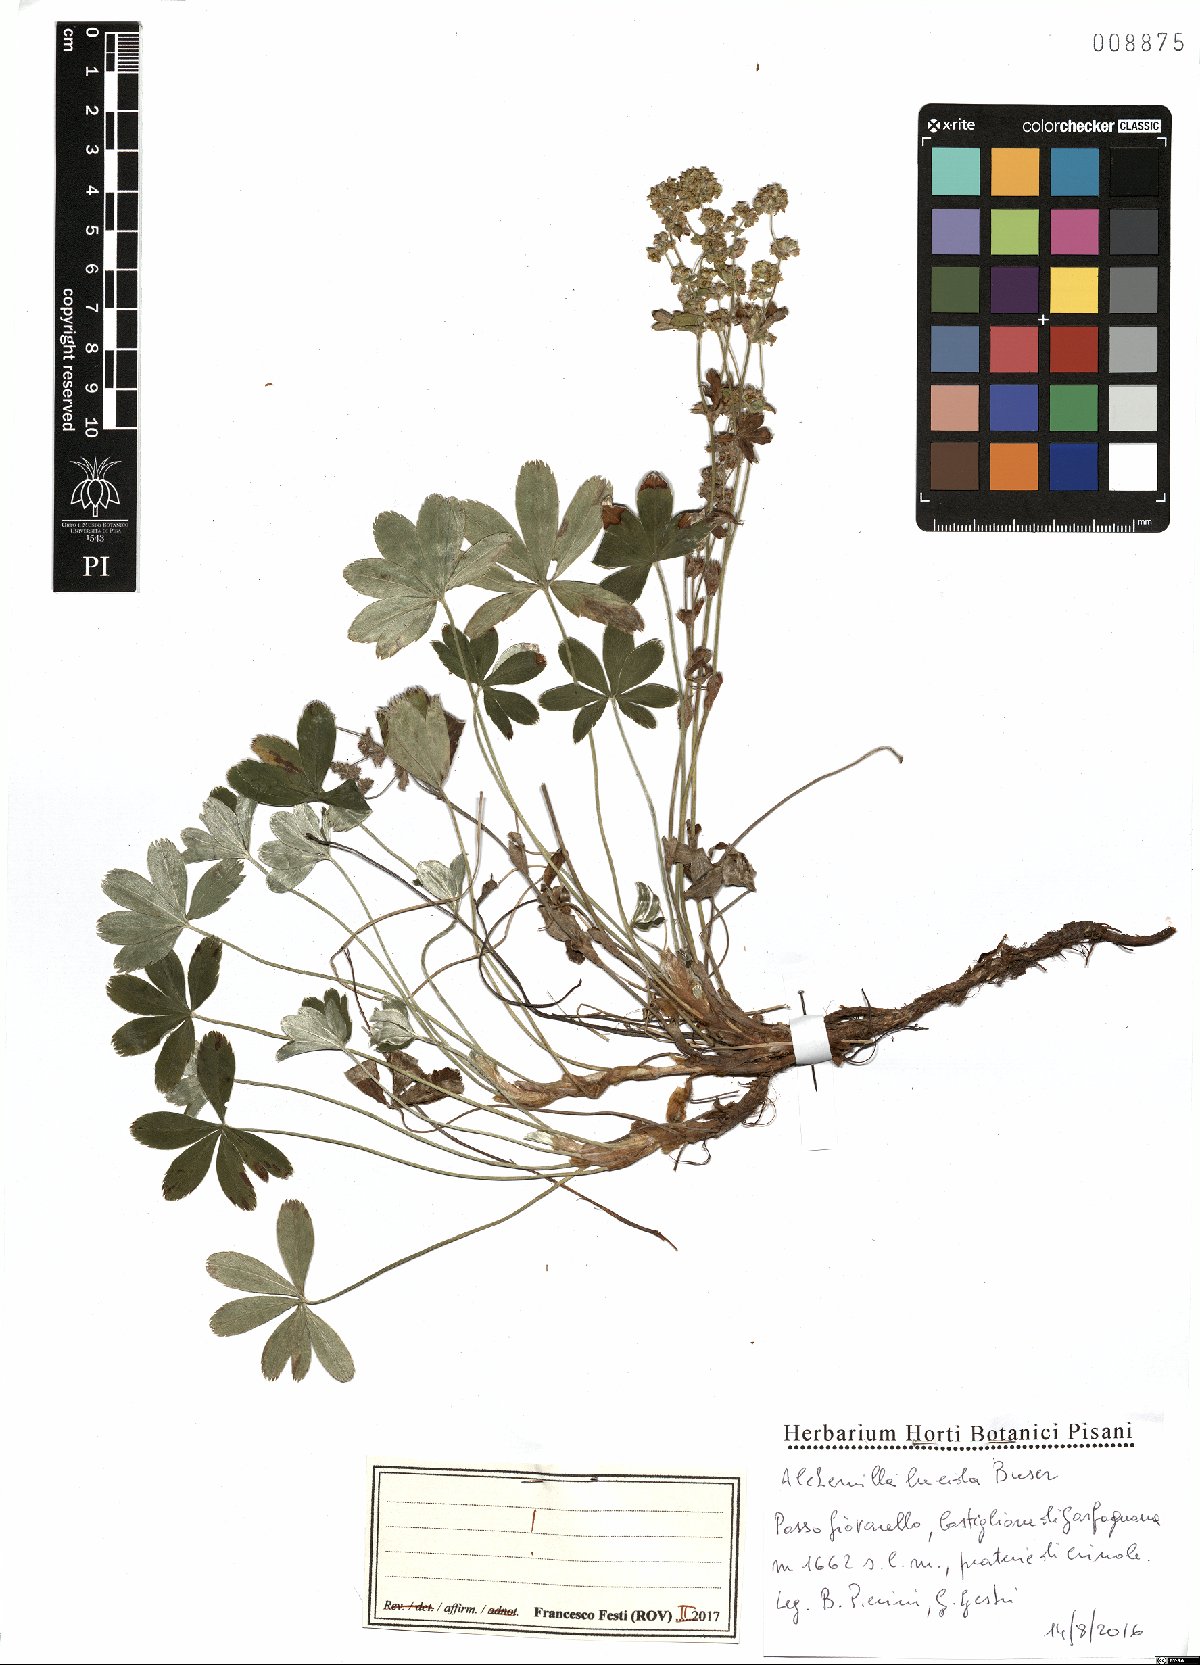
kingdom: Plantae
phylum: Tracheophyta
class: Magnoliopsida
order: Rosales
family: Rosaceae
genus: Alchemilla
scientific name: Alchemilla lucida
